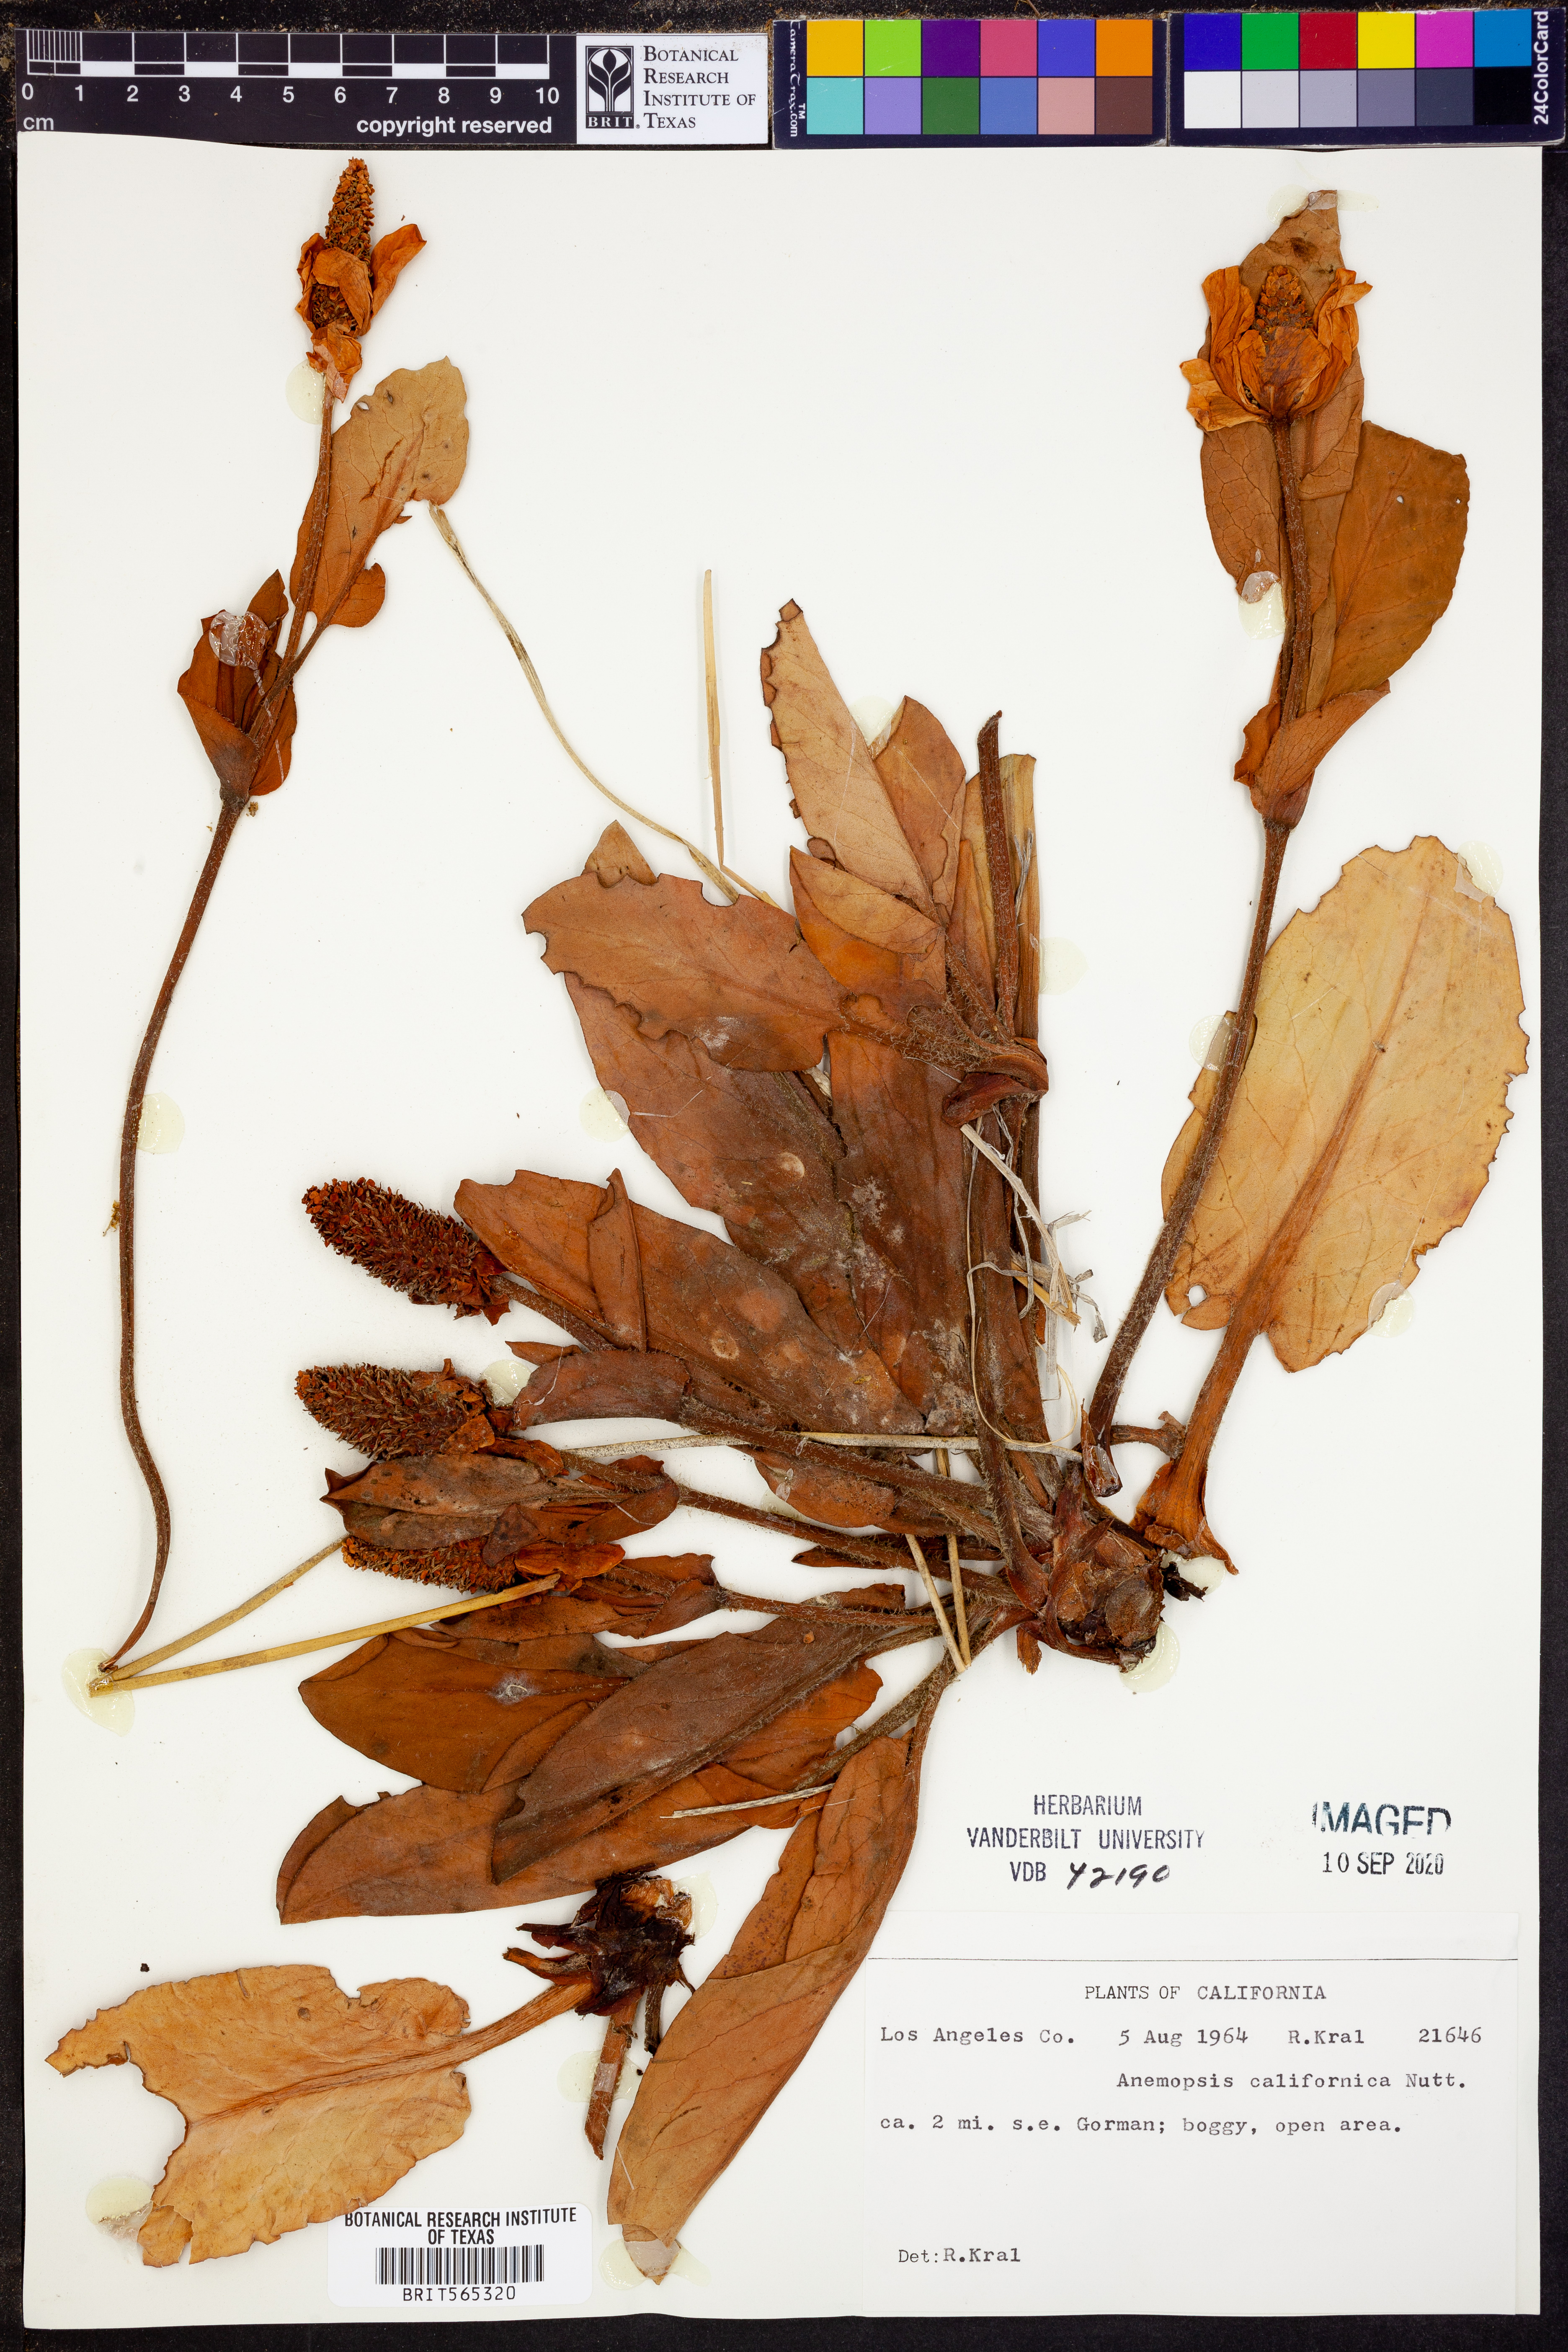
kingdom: Plantae
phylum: Tracheophyta
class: Magnoliopsida
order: Piperales
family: Saururaceae
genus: Anemopsis
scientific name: Anemopsis californica
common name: Apache-beads
